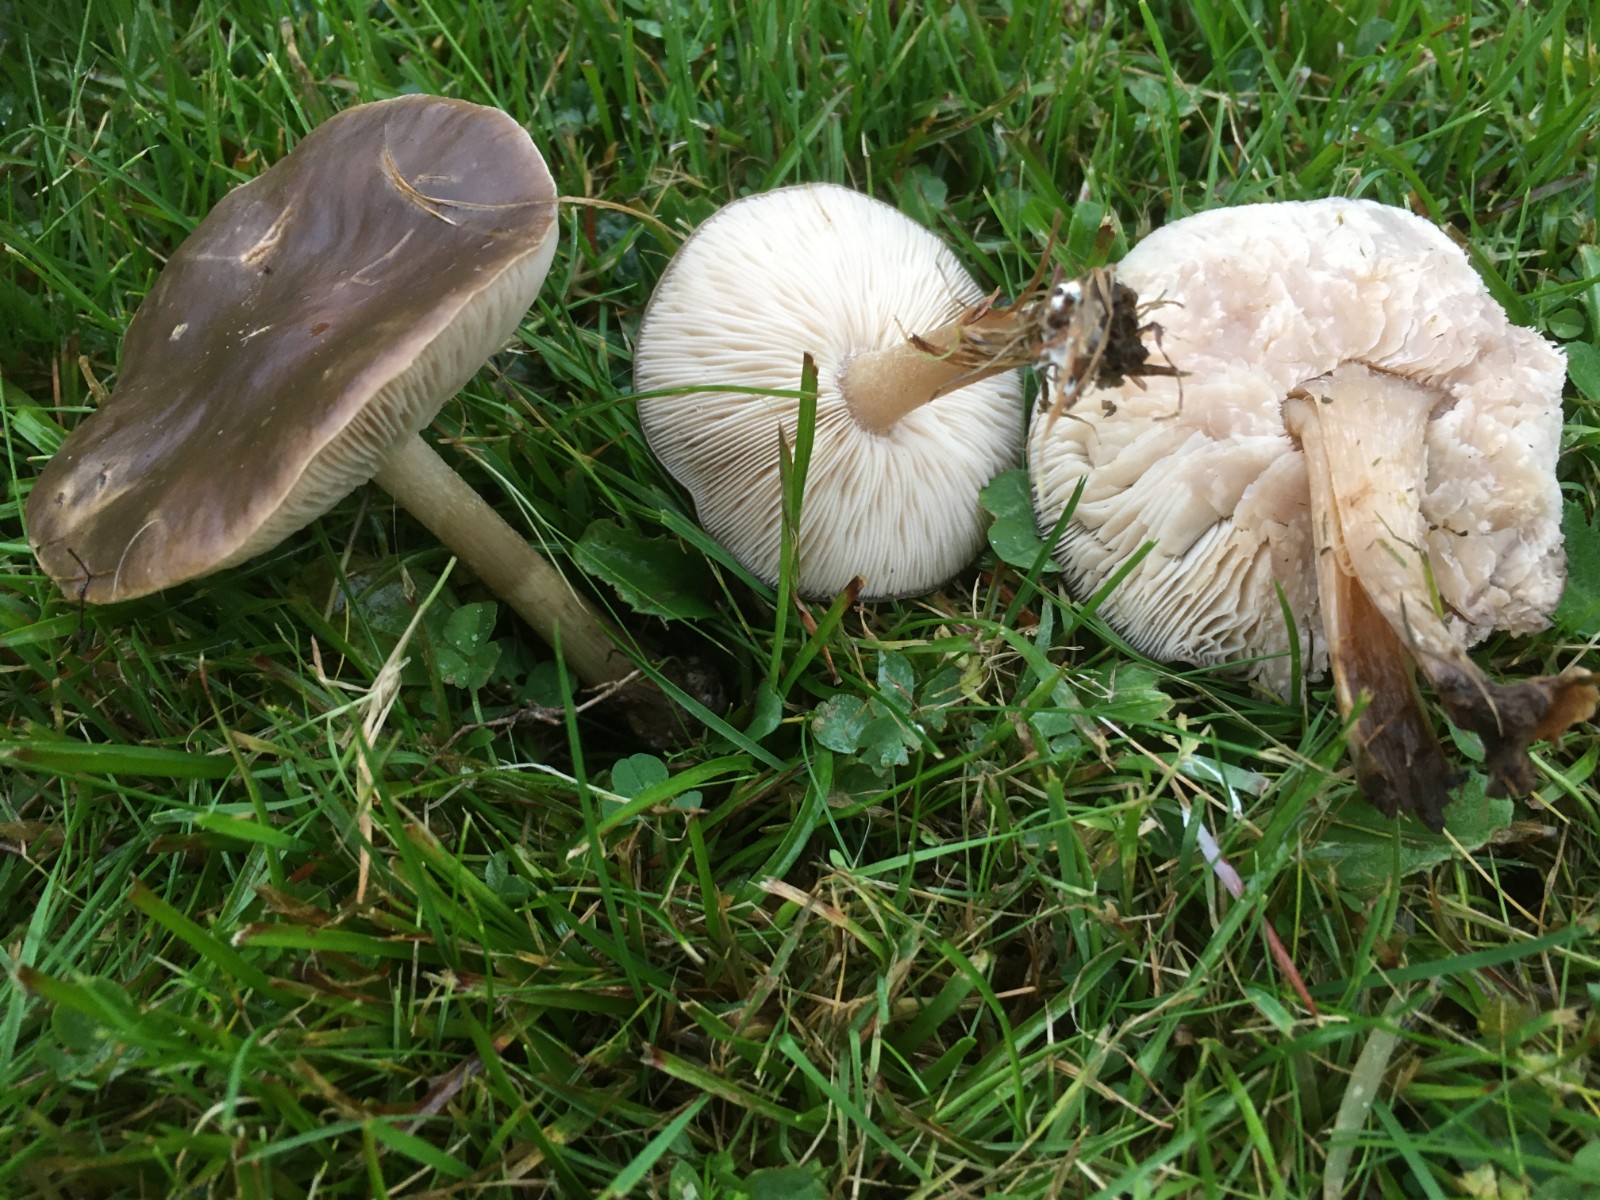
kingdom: Fungi
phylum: Basidiomycota
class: Agaricomycetes
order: Agaricales
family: Tricholomataceae
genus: Melanoleuca
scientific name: Melanoleuca
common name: munkehat
